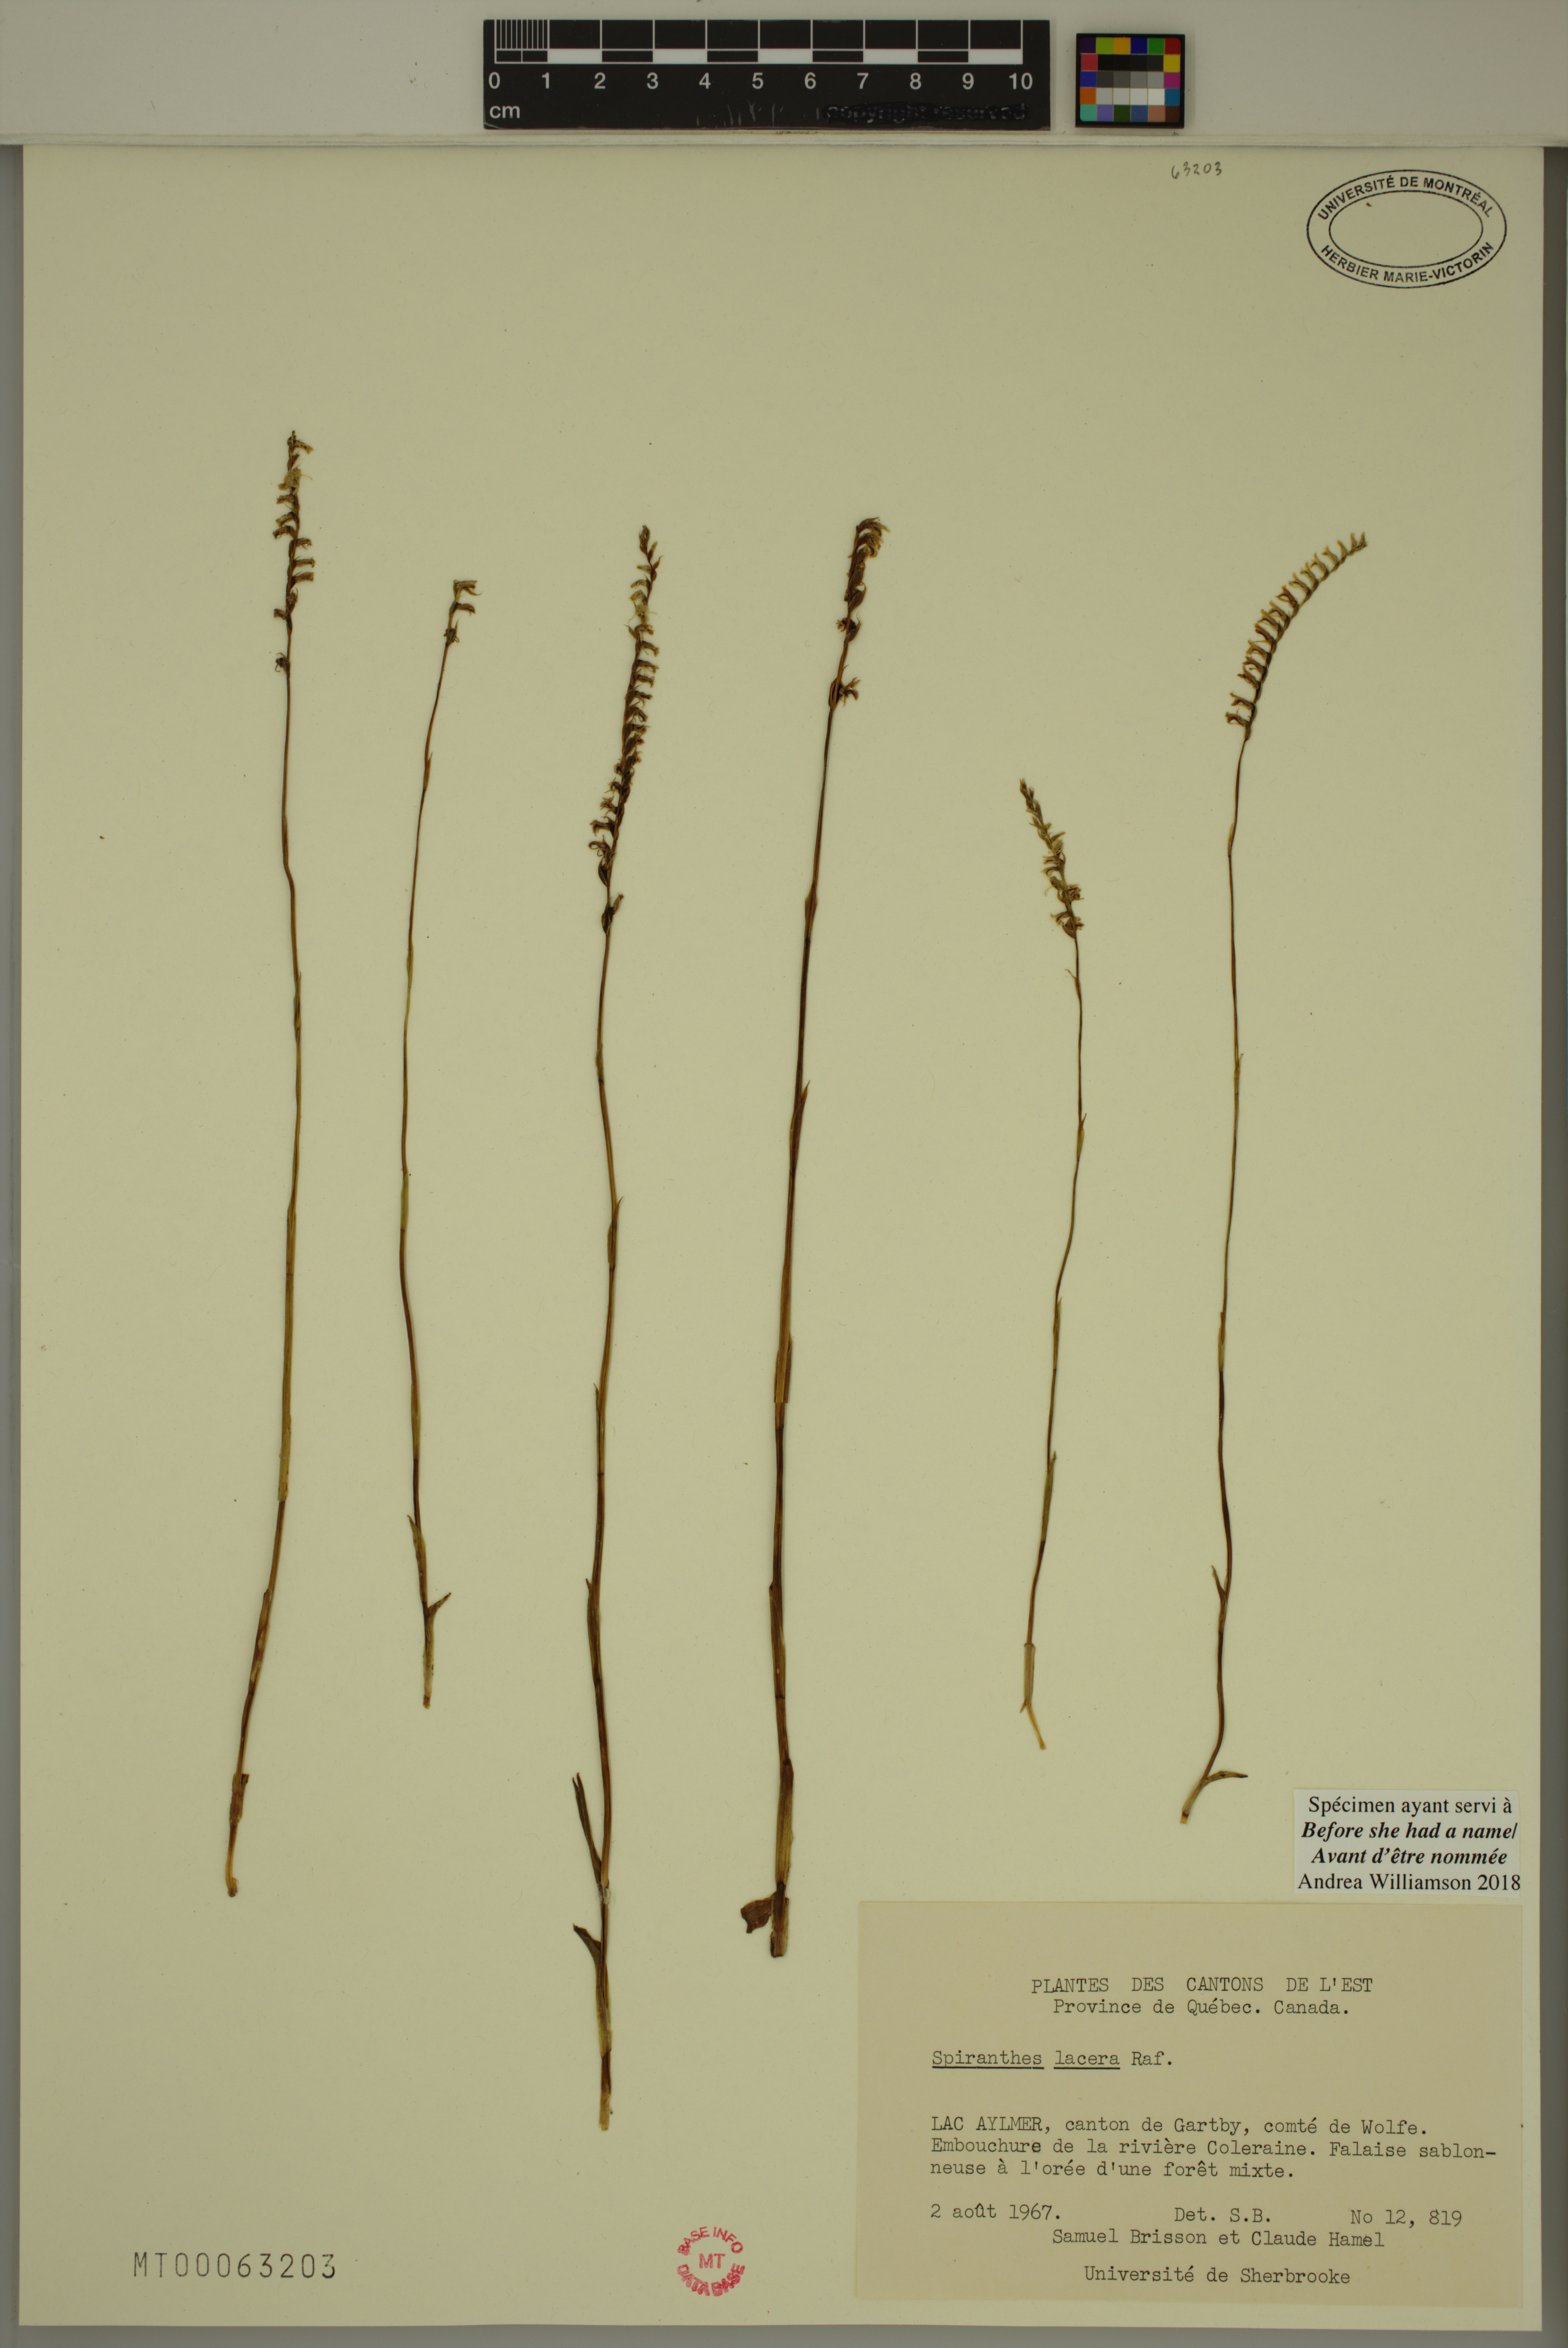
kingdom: Plantae
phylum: Tracheophyta
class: Liliopsida
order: Asparagales
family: Orchidaceae
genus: Spiranthes
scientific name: Spiranthes lacera
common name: Northern slender ladies'-tresses
